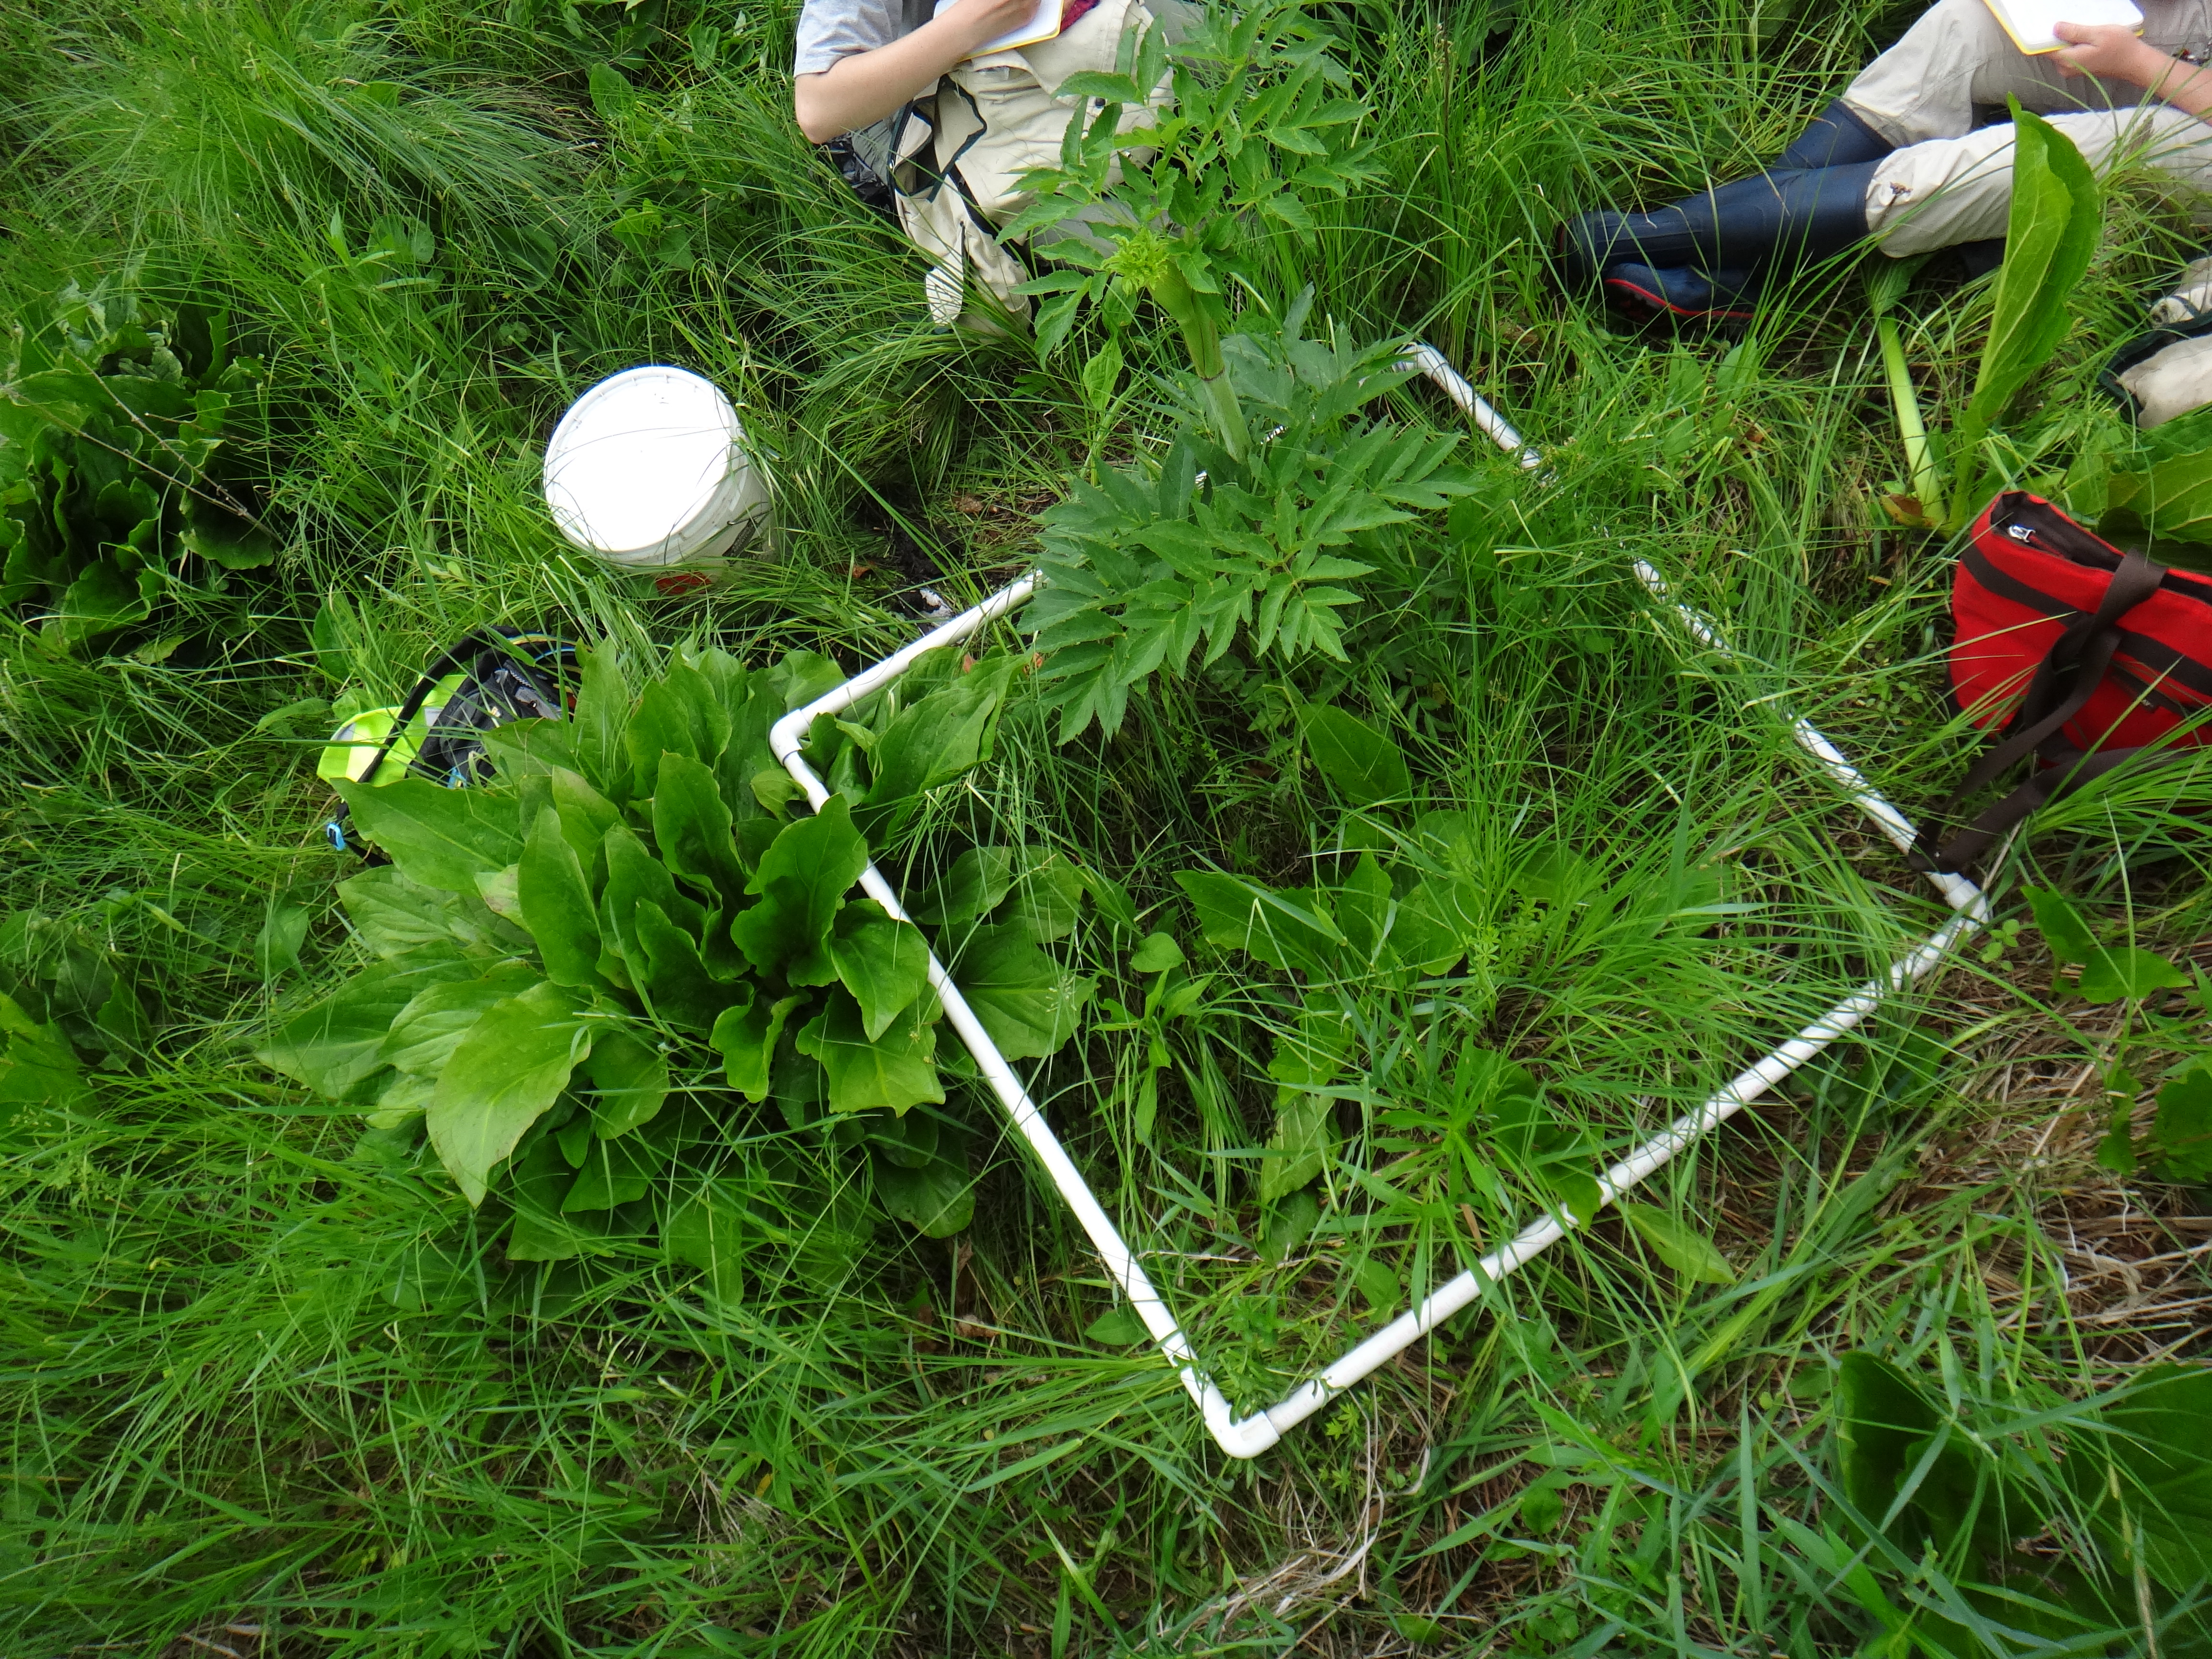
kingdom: Plantae
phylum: Tracheophyta
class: Magnoliopsida
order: Asterales
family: Asteraceae
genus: Solidago
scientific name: Solidago patula
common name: Rough-leaf goldenrod
